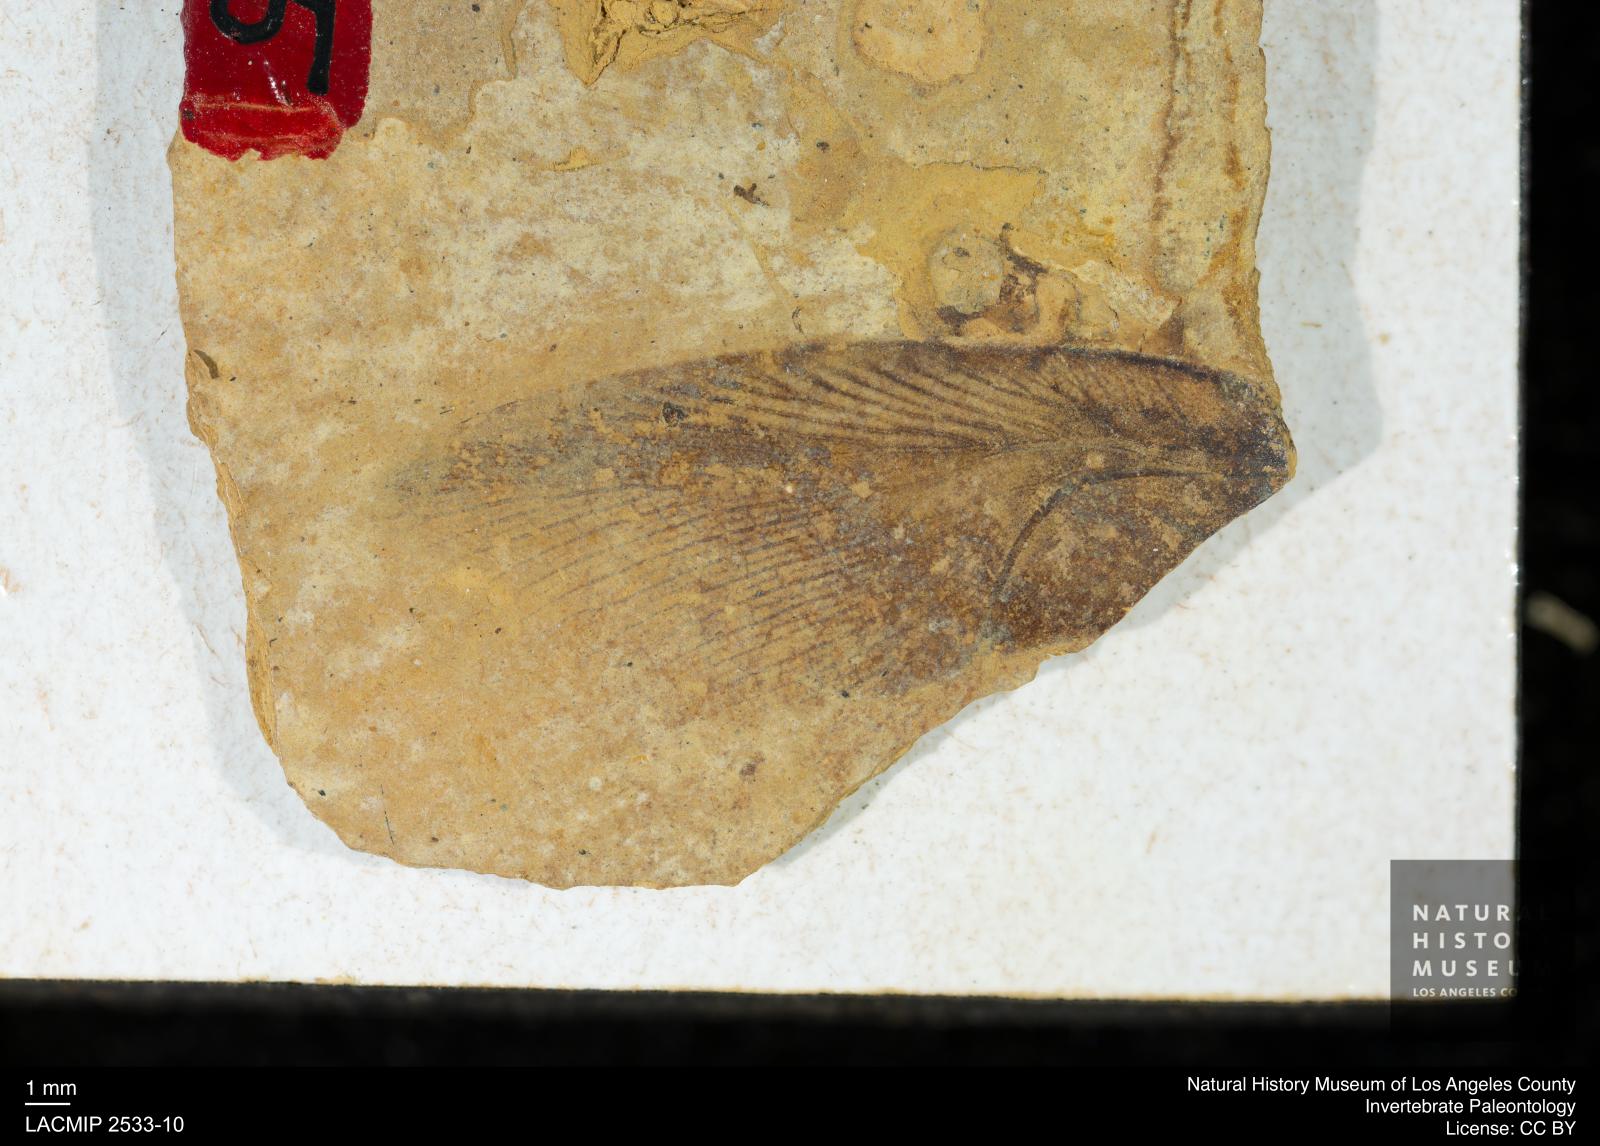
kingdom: Animalia
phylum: Arthropoda
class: Insecta
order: Orthoptera
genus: Blaberites
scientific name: Blaberites rhenana
